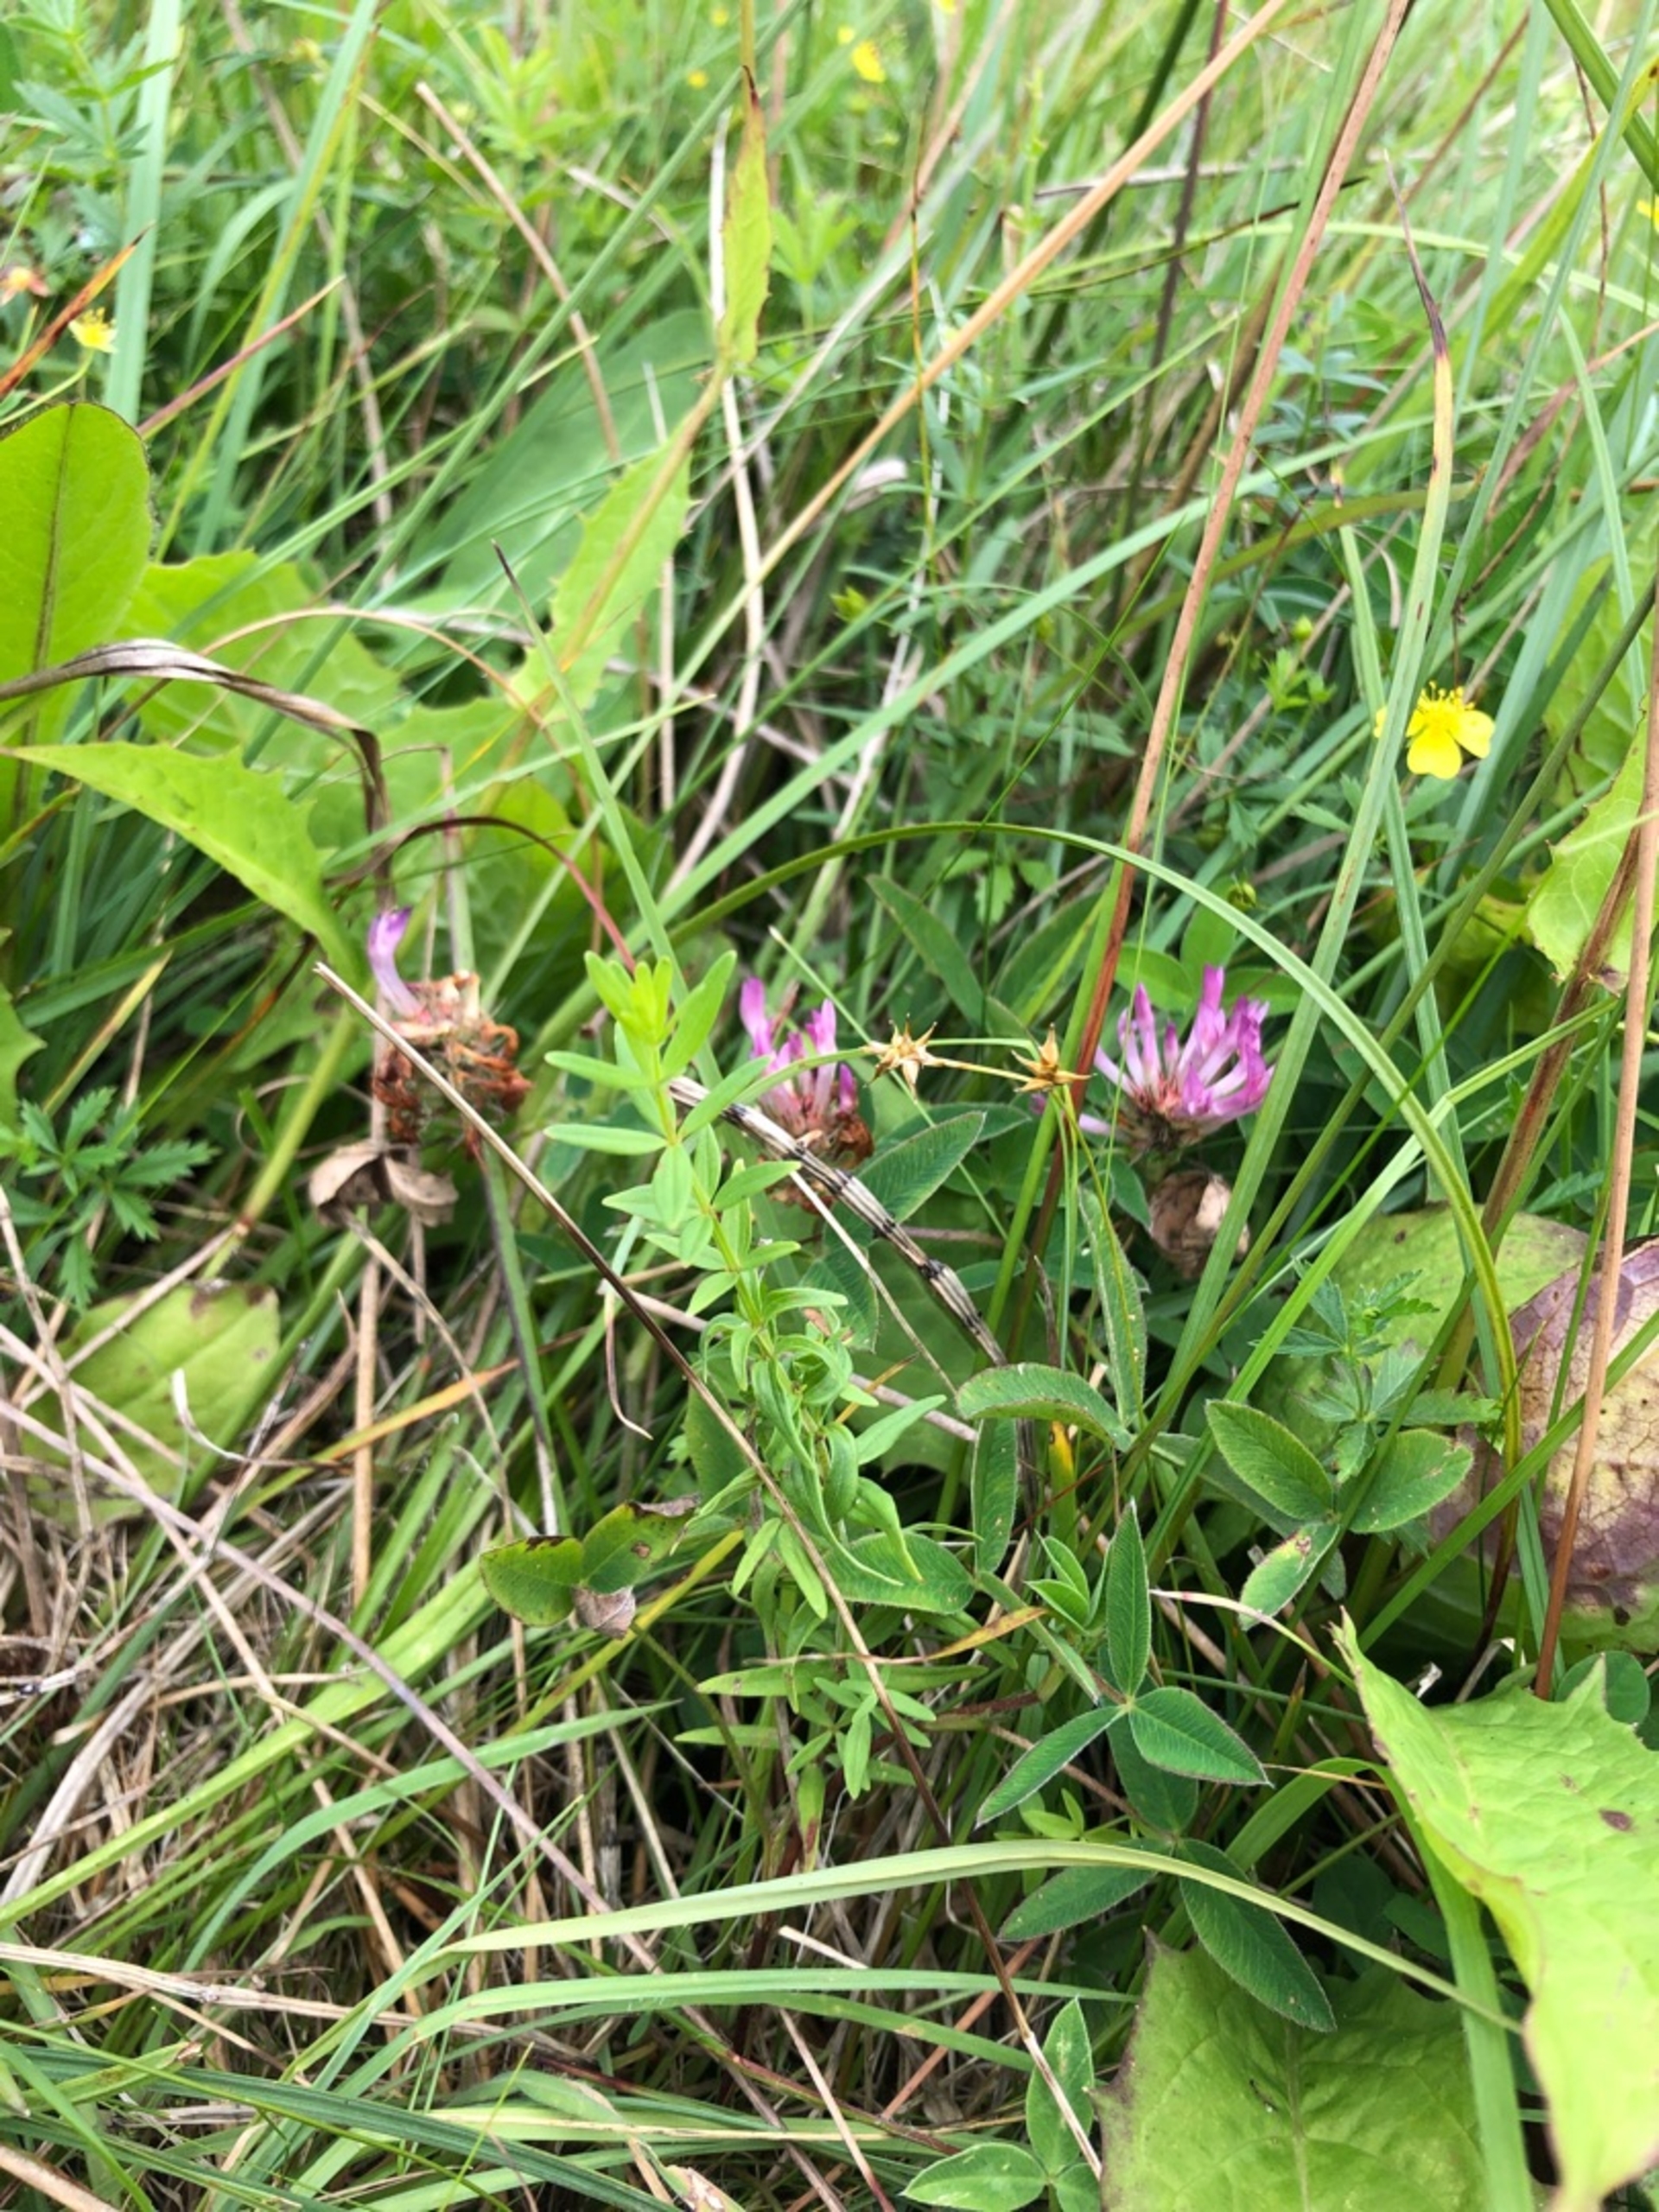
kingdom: Plantae
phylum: Tracheophyta
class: Magnoliopsida
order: Gentianales
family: Rubiaceae
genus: Galium
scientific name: Galium boreale
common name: Trenervet snerre
